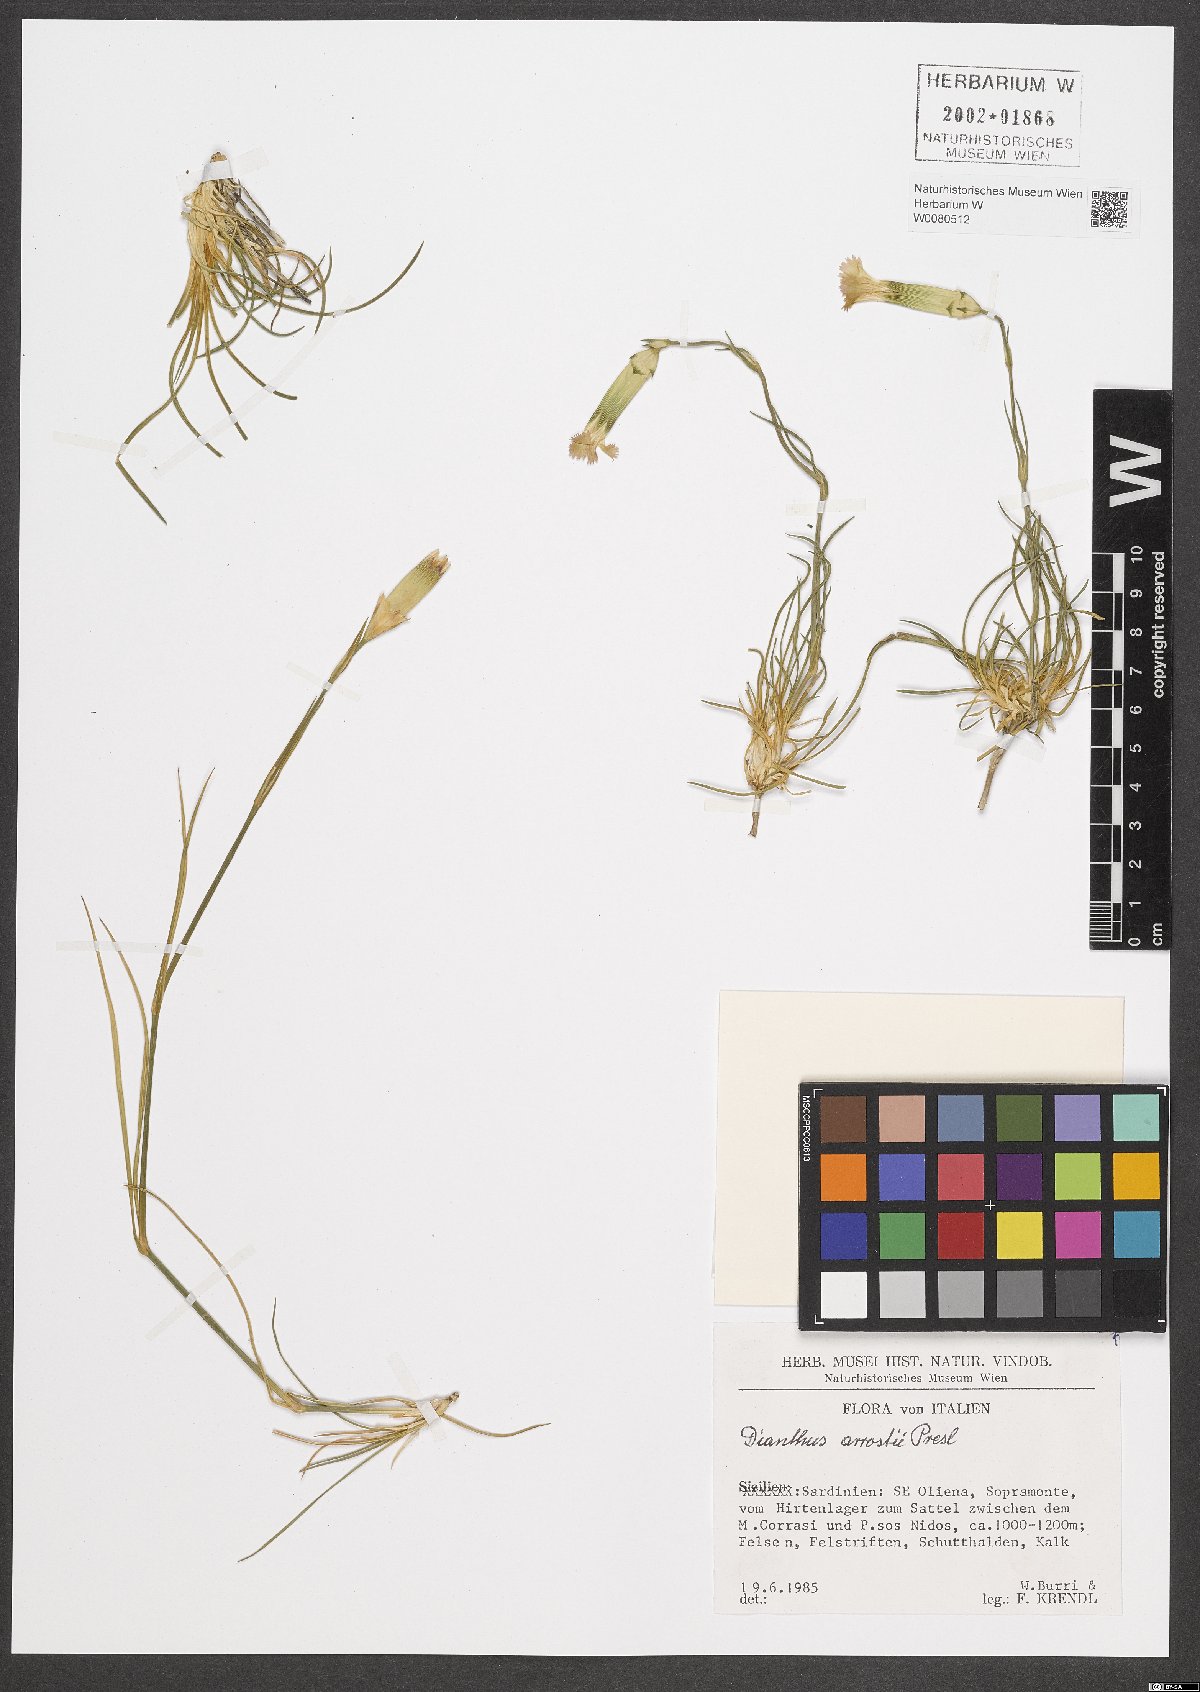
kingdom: Plantae
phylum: Tracheophyta
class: Magnoliopsida
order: Caryophyllales
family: Caryophyllaceae
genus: Dianthus
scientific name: Dianthus arrostii
